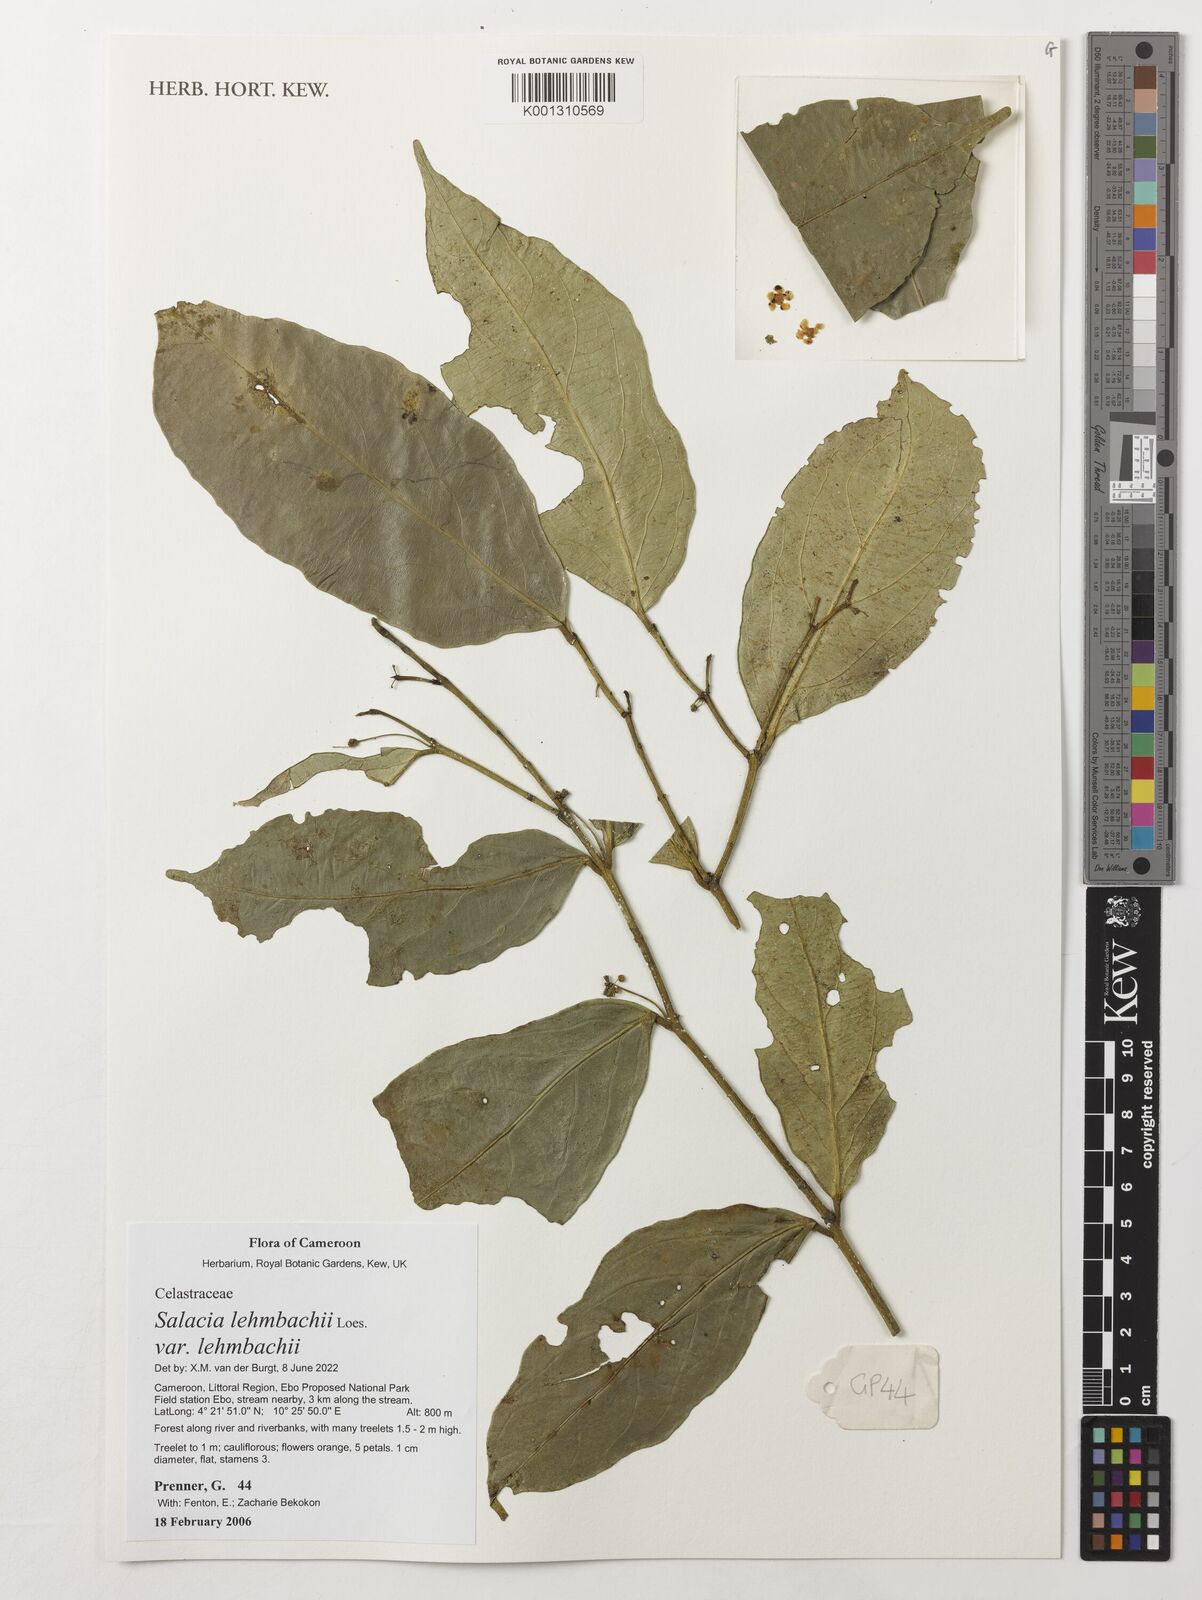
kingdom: Plantae
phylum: Tracheophyta
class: Magnoliopsida
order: Celastrales
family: Celastraceae
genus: Salacia
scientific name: Salacia lehmbachii
